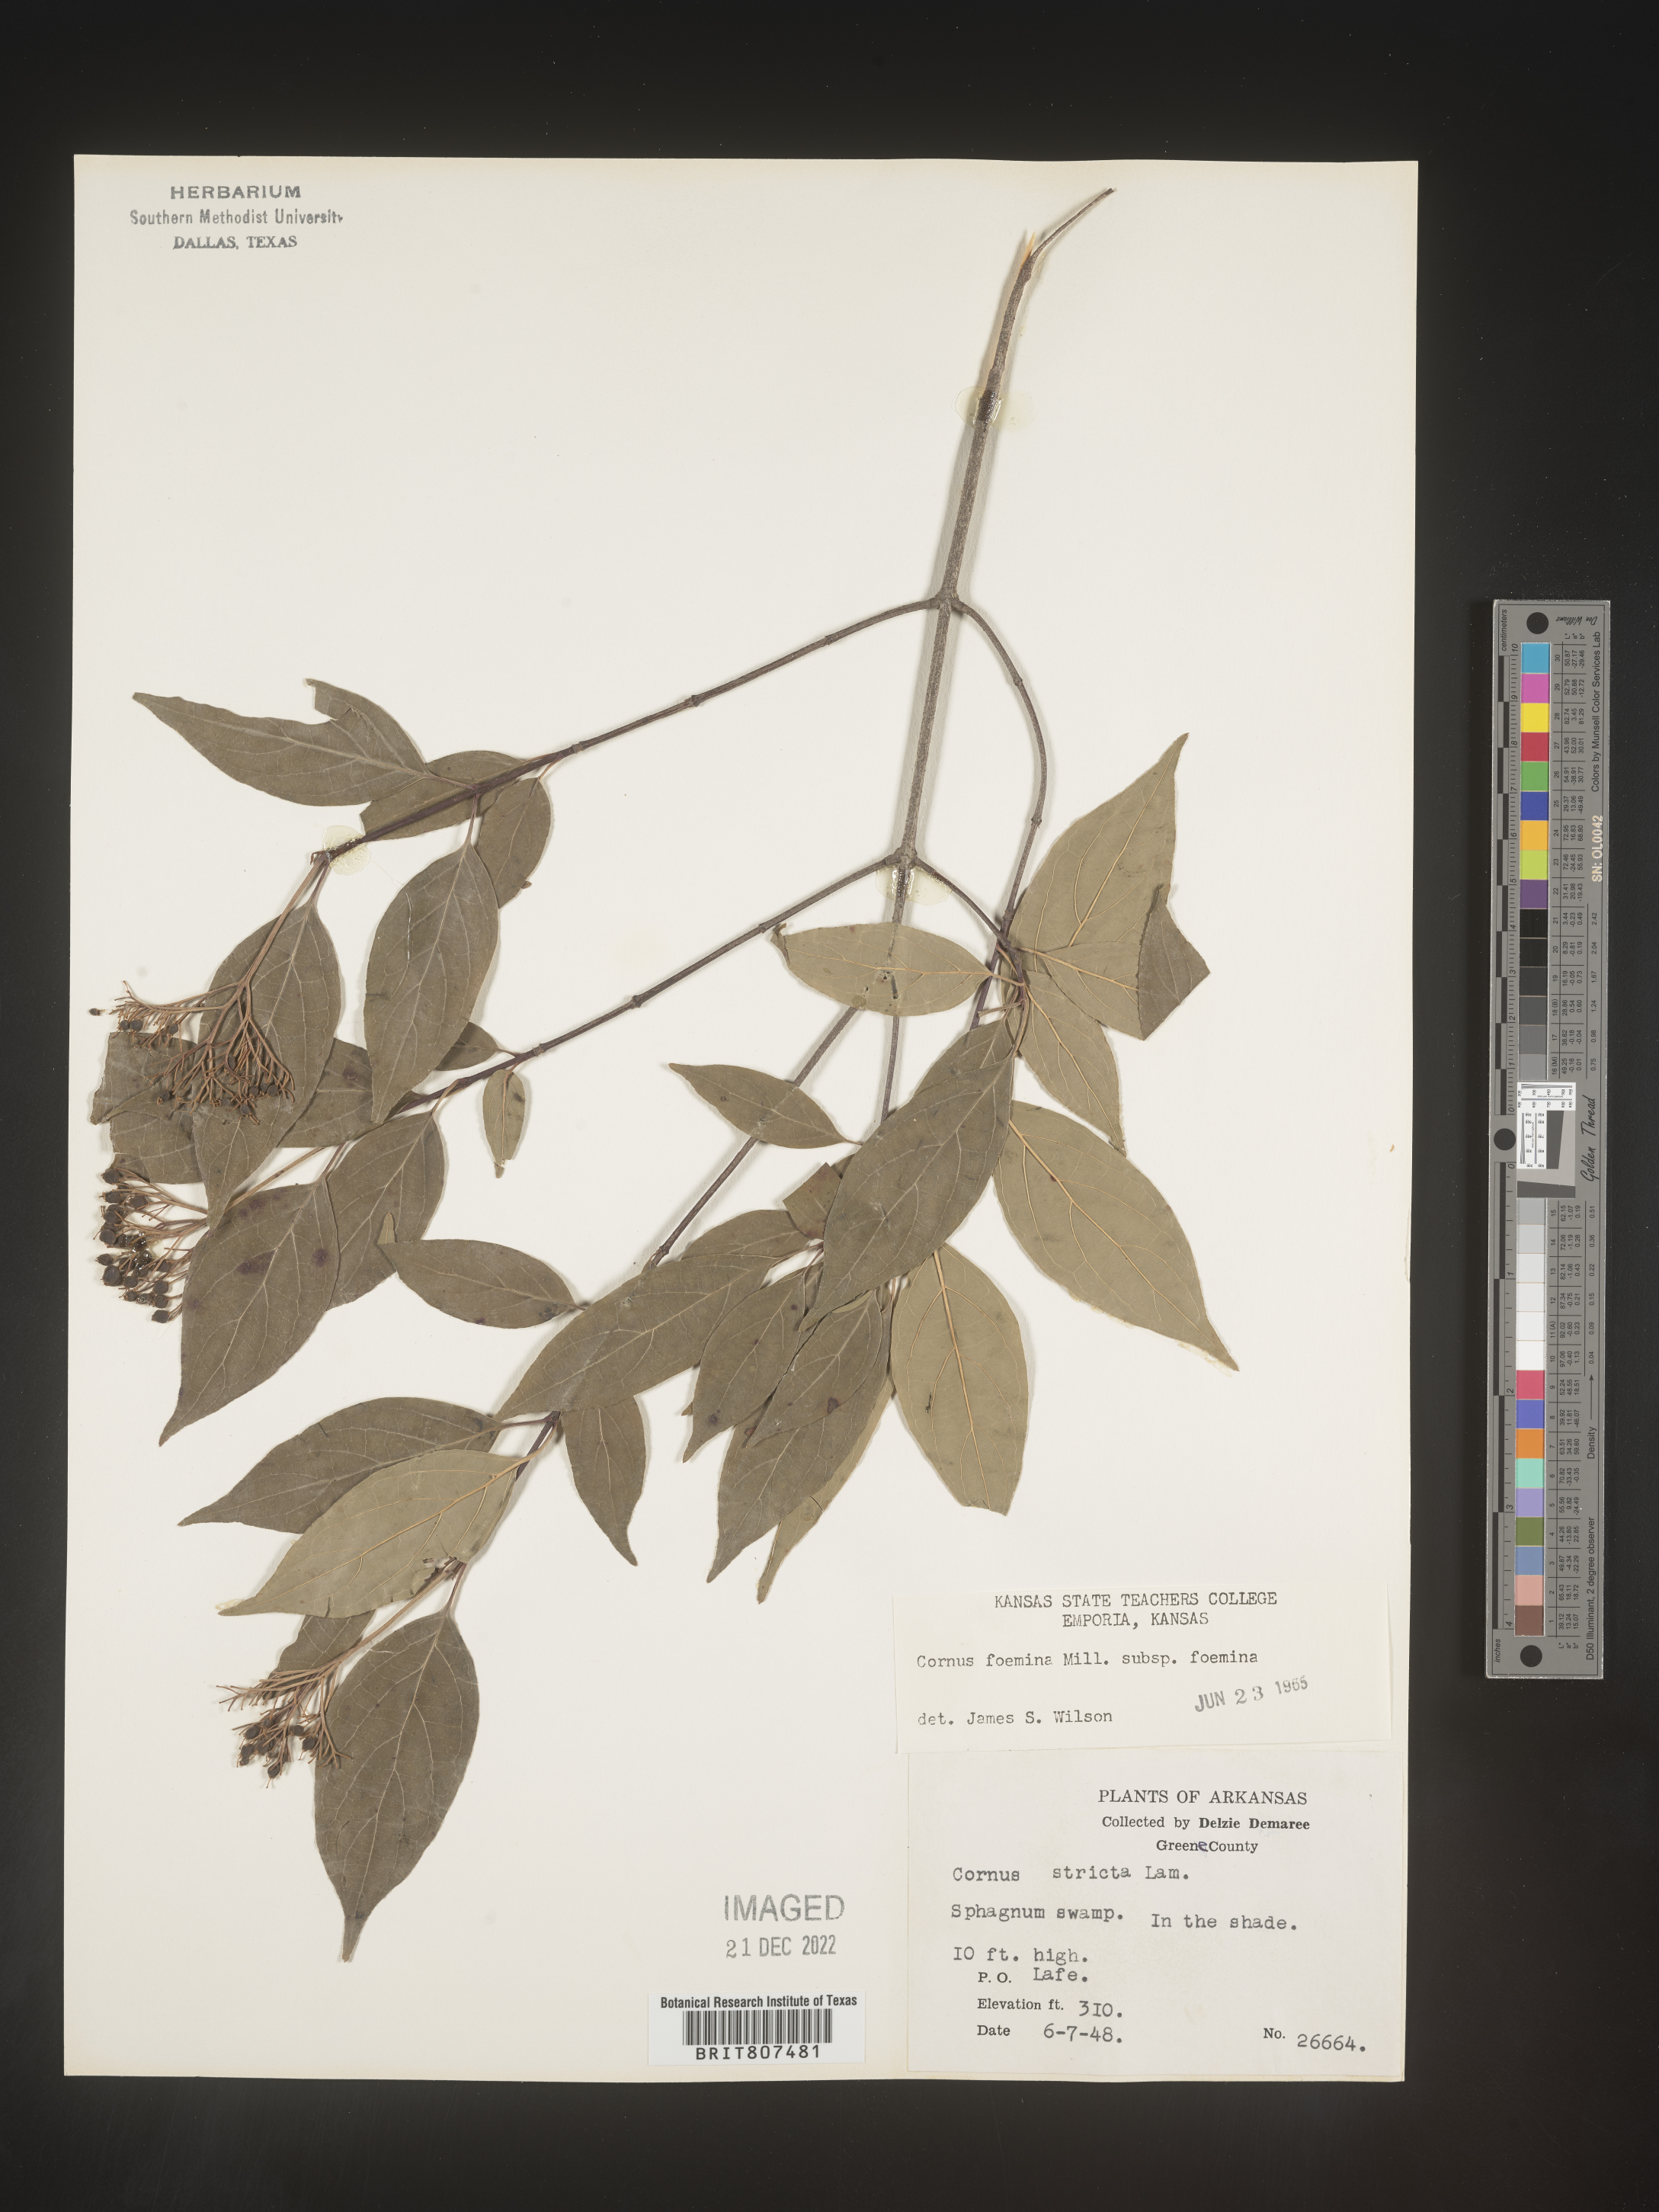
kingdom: Plantae
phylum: Tracheophyta
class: Magnoliopsida
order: Cornales
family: Cornaceae
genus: Cornus
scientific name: Cornus foemina
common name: Swamp dogwood
